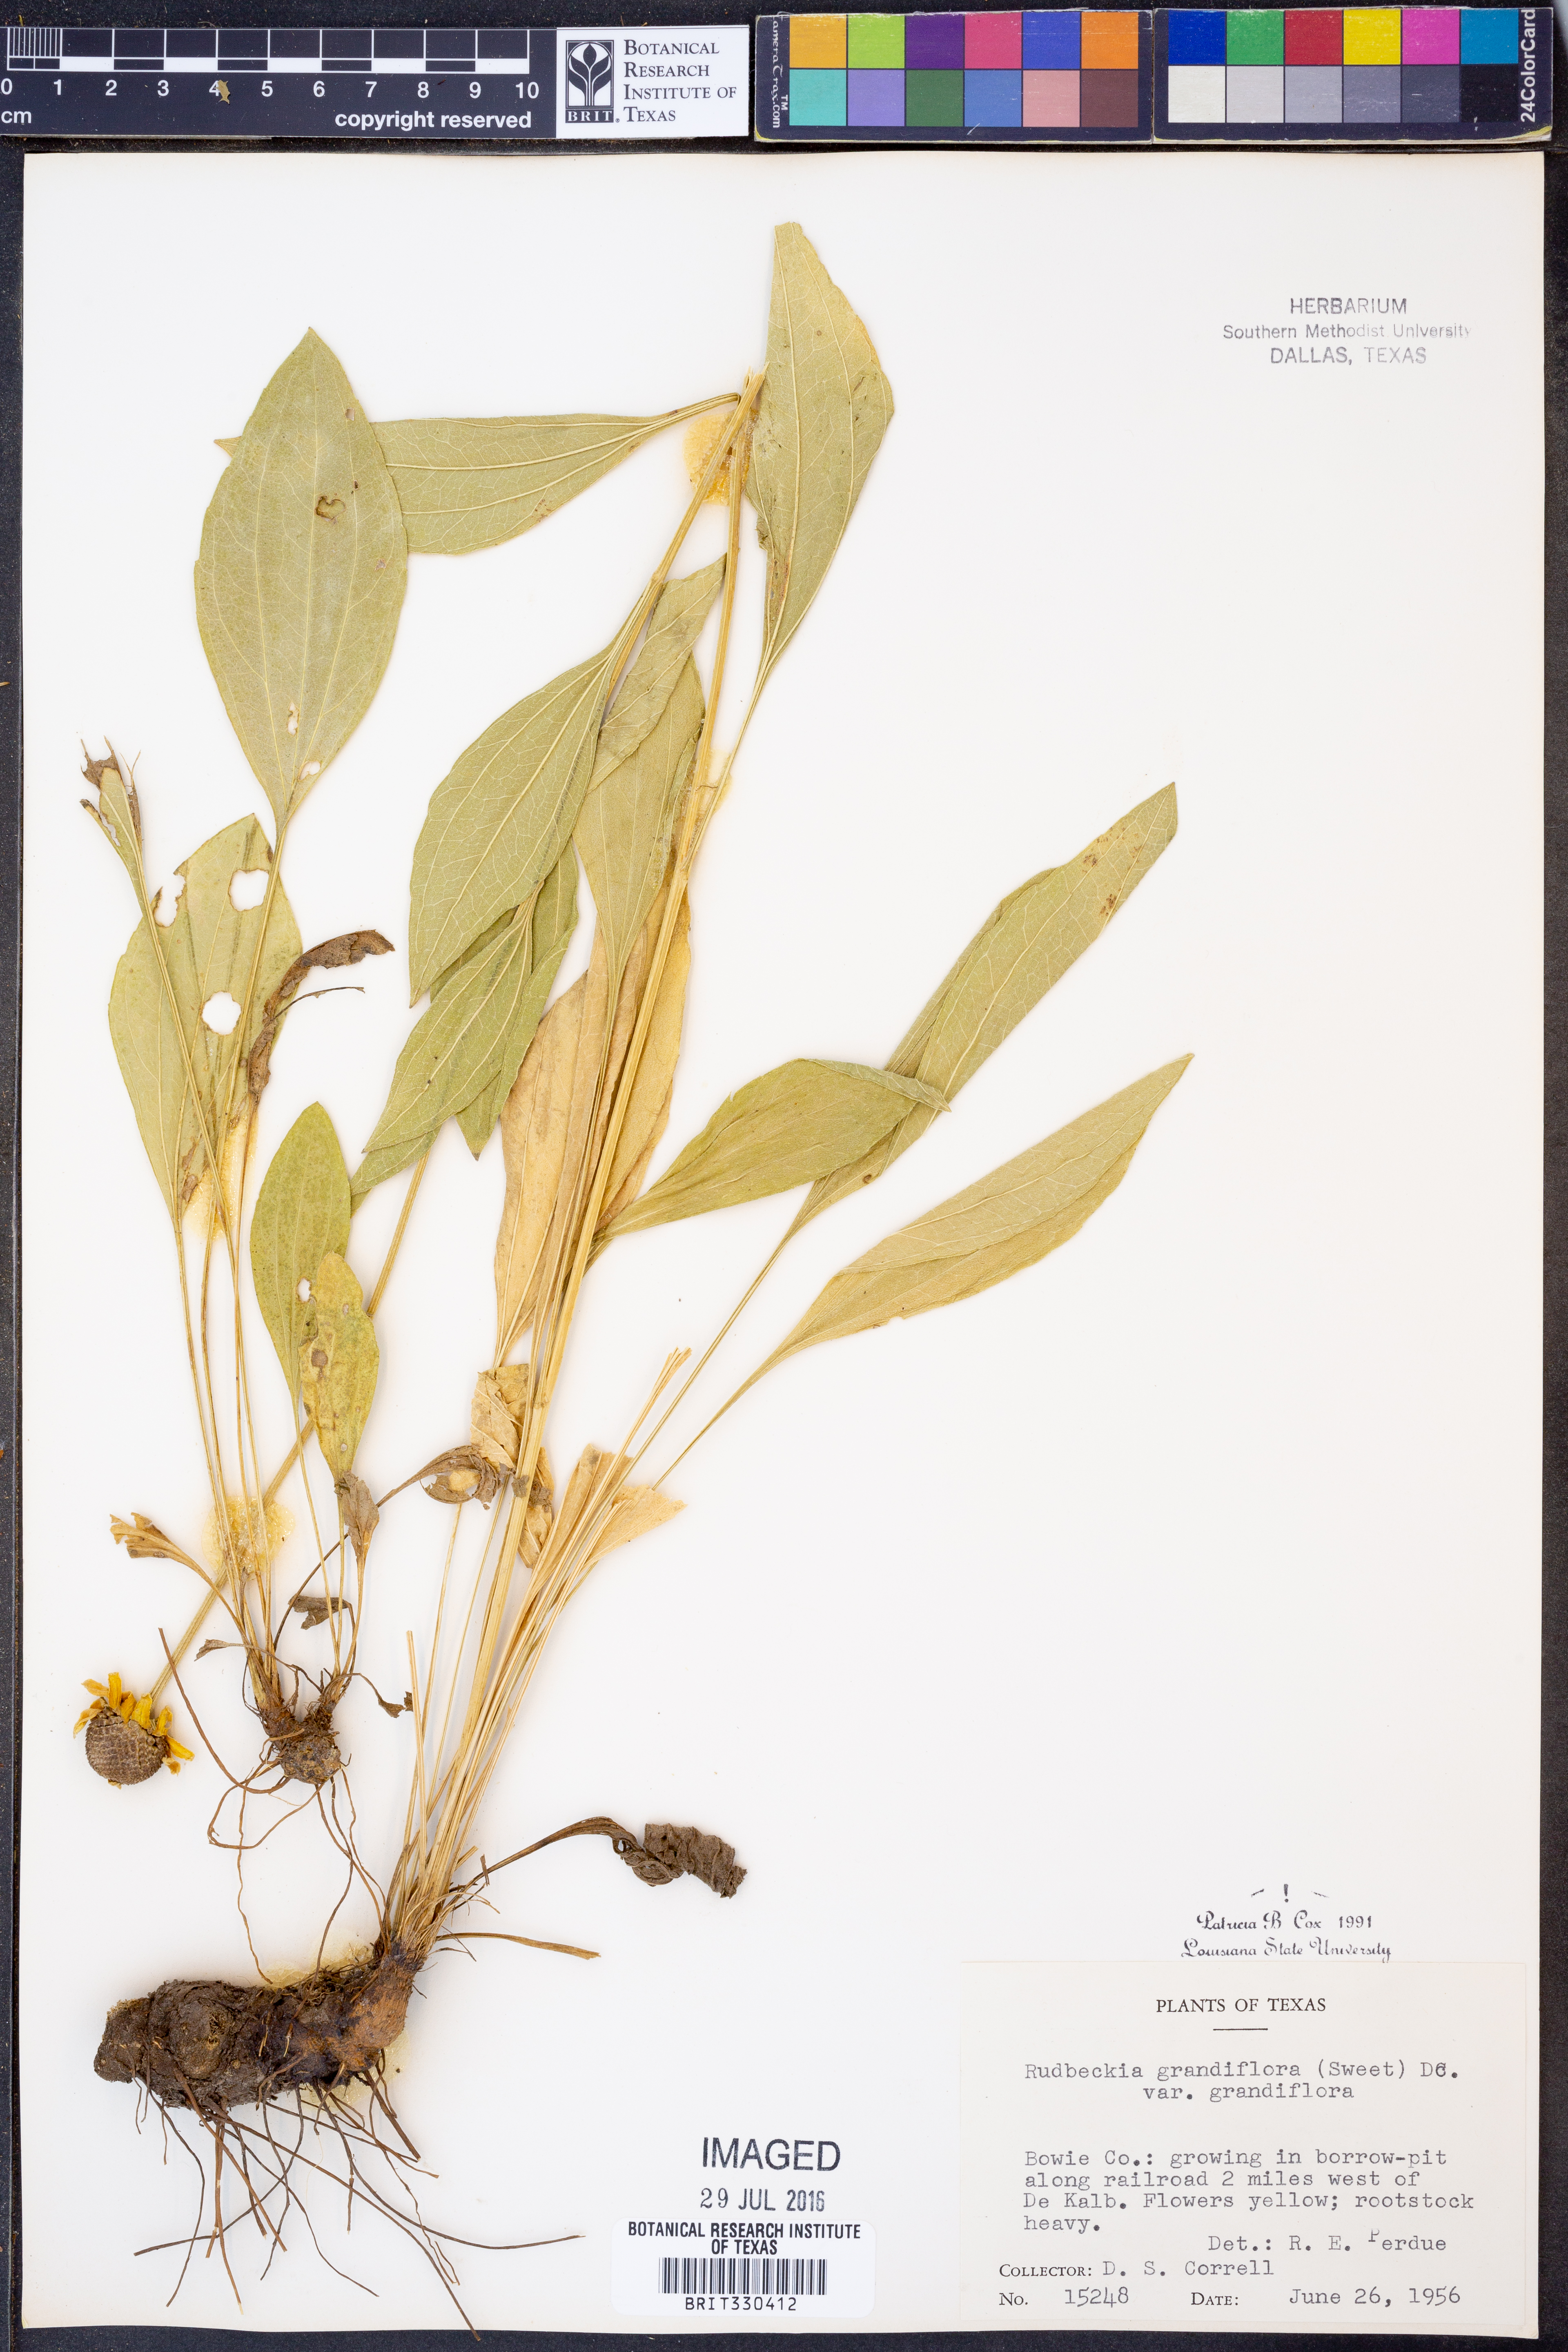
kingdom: Plantae
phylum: Tracheophyta
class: Magnoliopsida
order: Asterales
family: Asteraceae
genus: Rudbeckia
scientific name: Rudbeckia grandiflora
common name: Large-flowered coneflower
